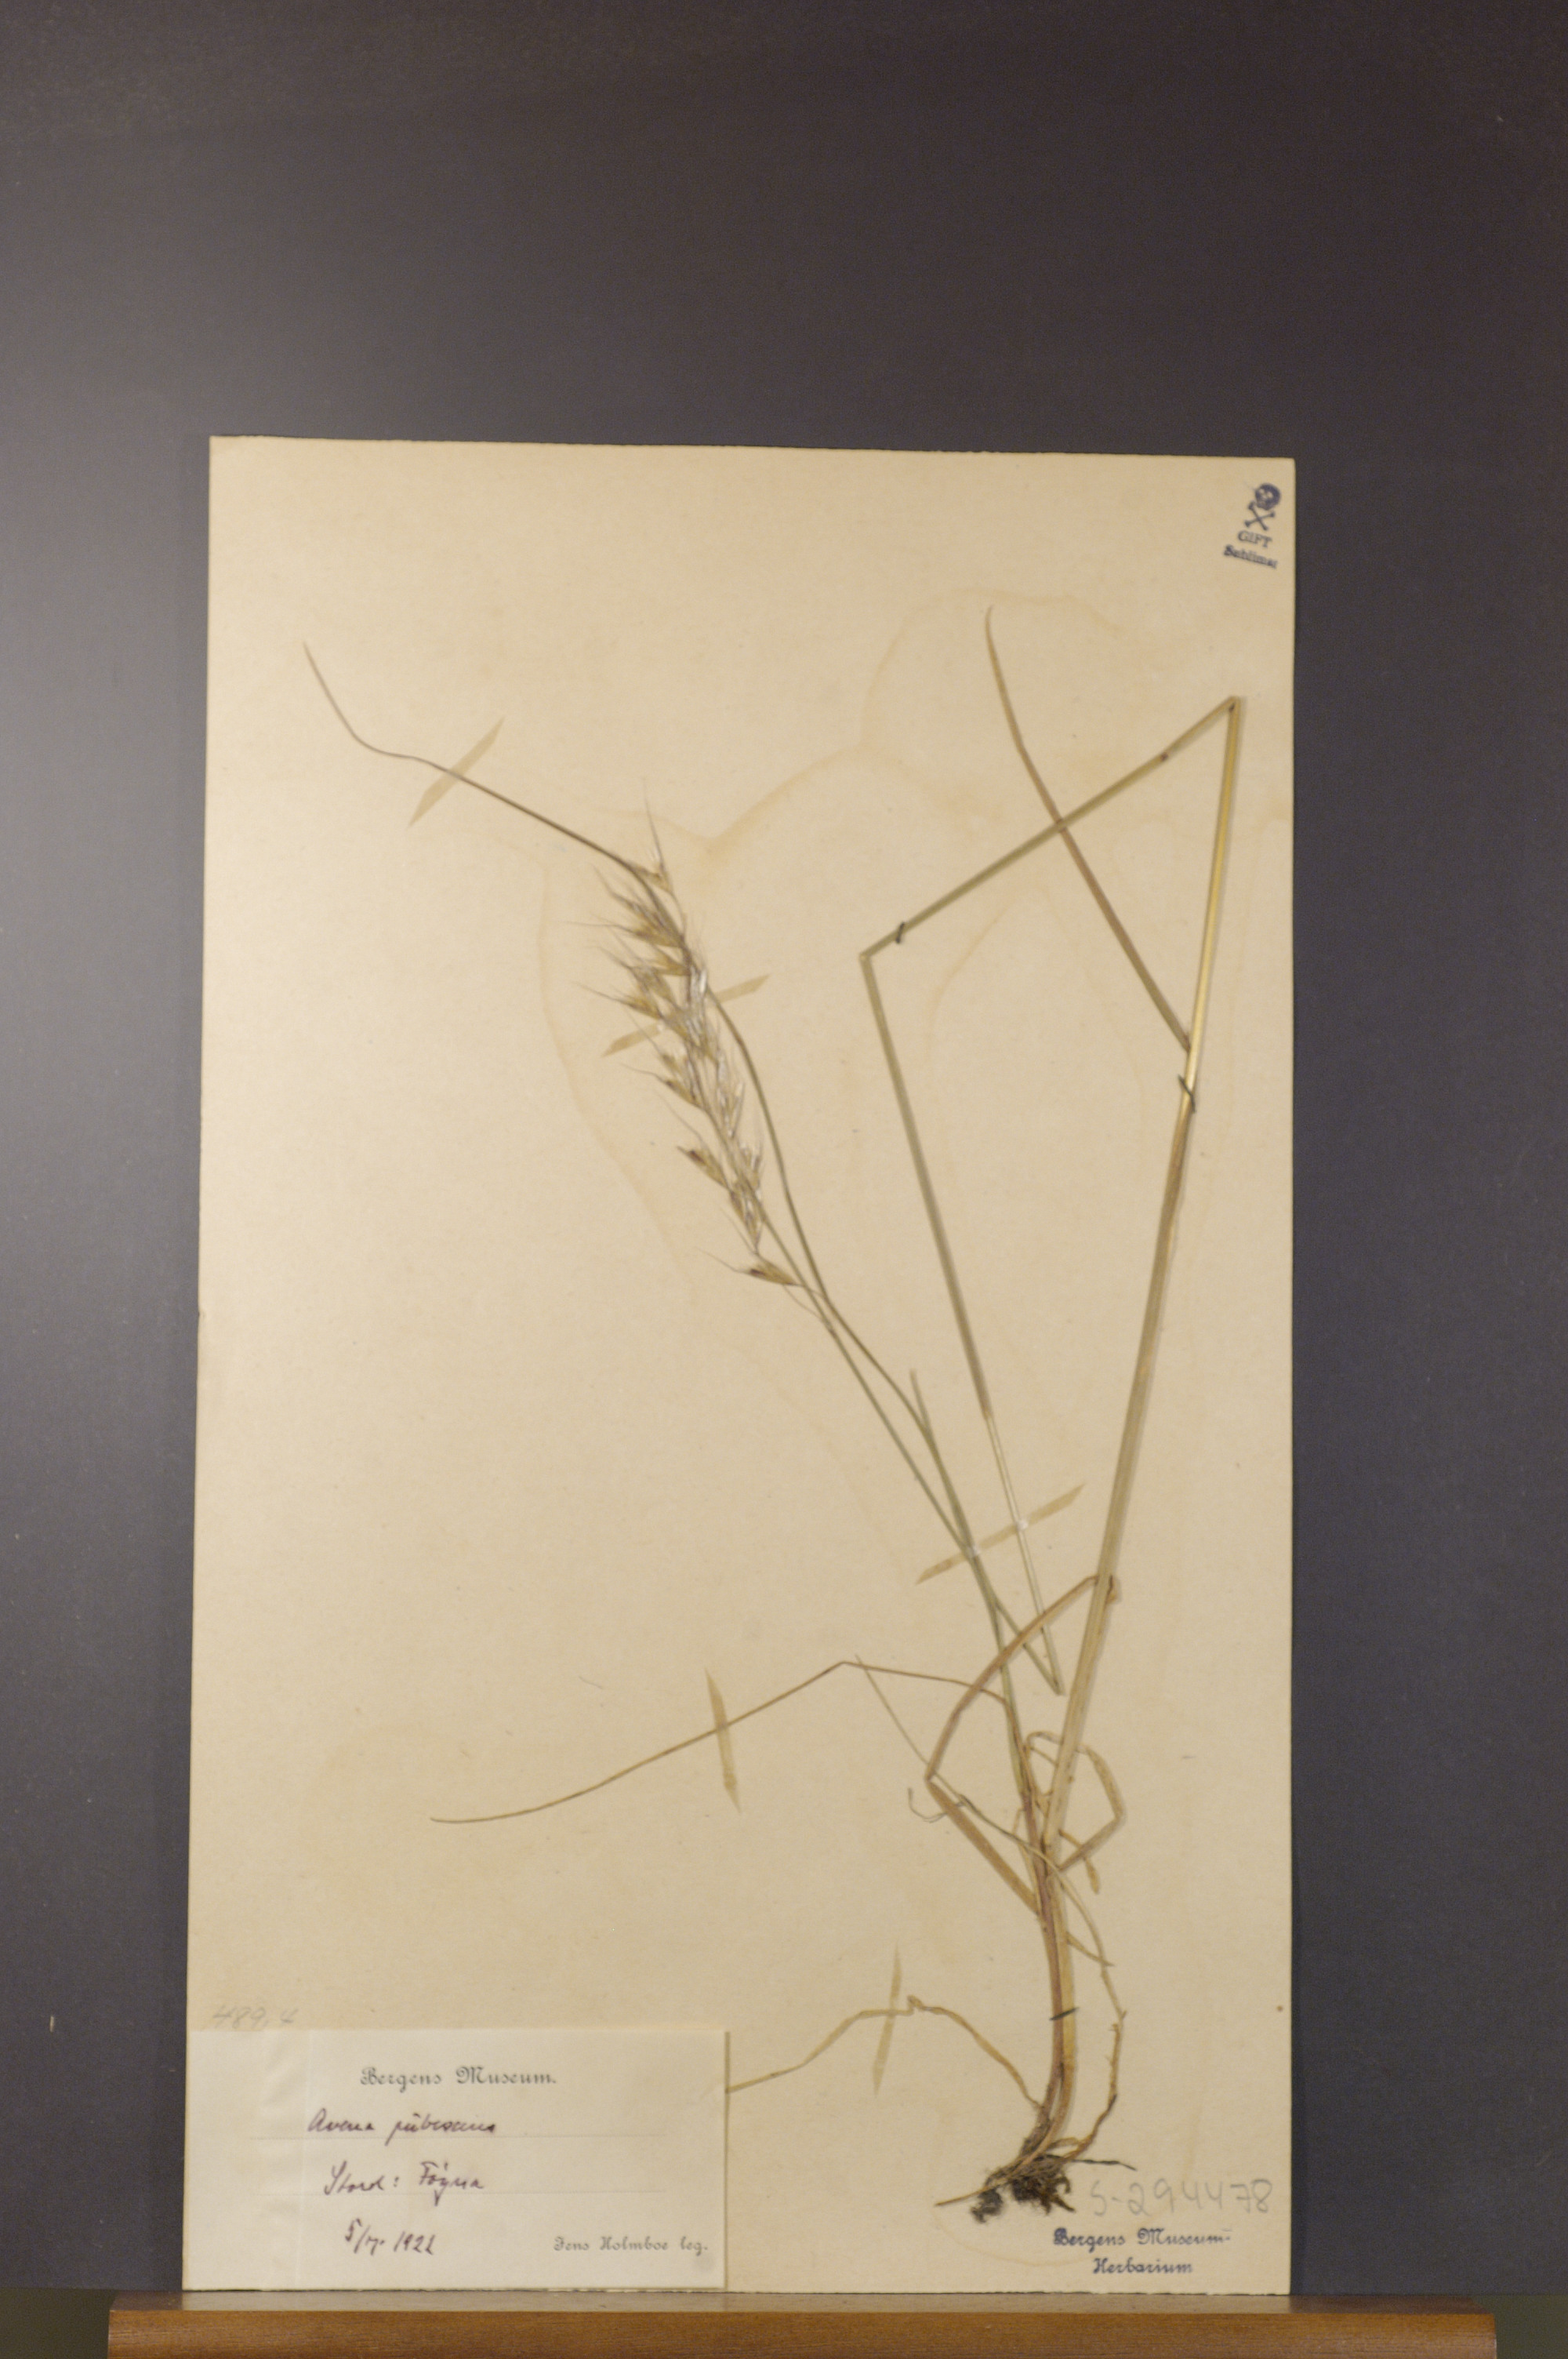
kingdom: Plantae
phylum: Tracheophyta
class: Liliopsida
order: Poales
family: Poaceae
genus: Avenula
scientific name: Avenula pubescens
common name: Downy alpine oatgrass
